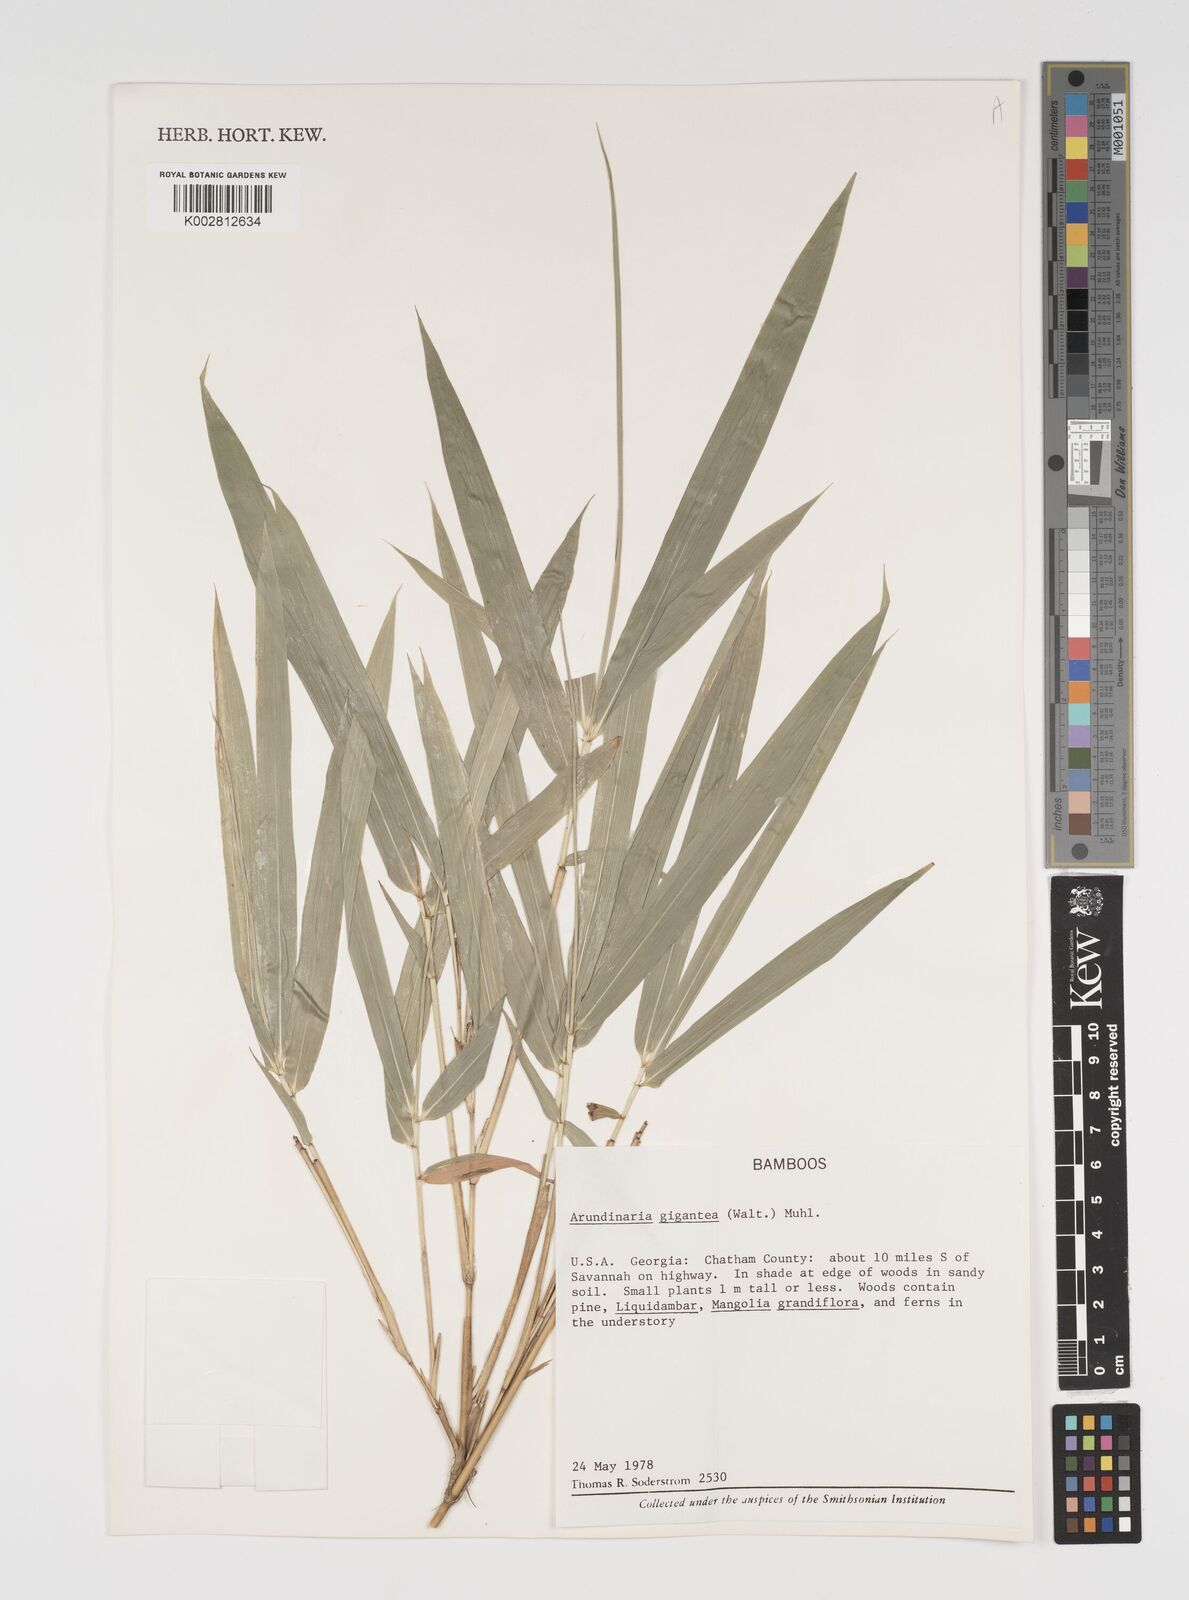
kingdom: Plantae
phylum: Tracheophyta
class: Liliopsida
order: Poales
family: Poaceae
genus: Arundinaria
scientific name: Arundinaria
